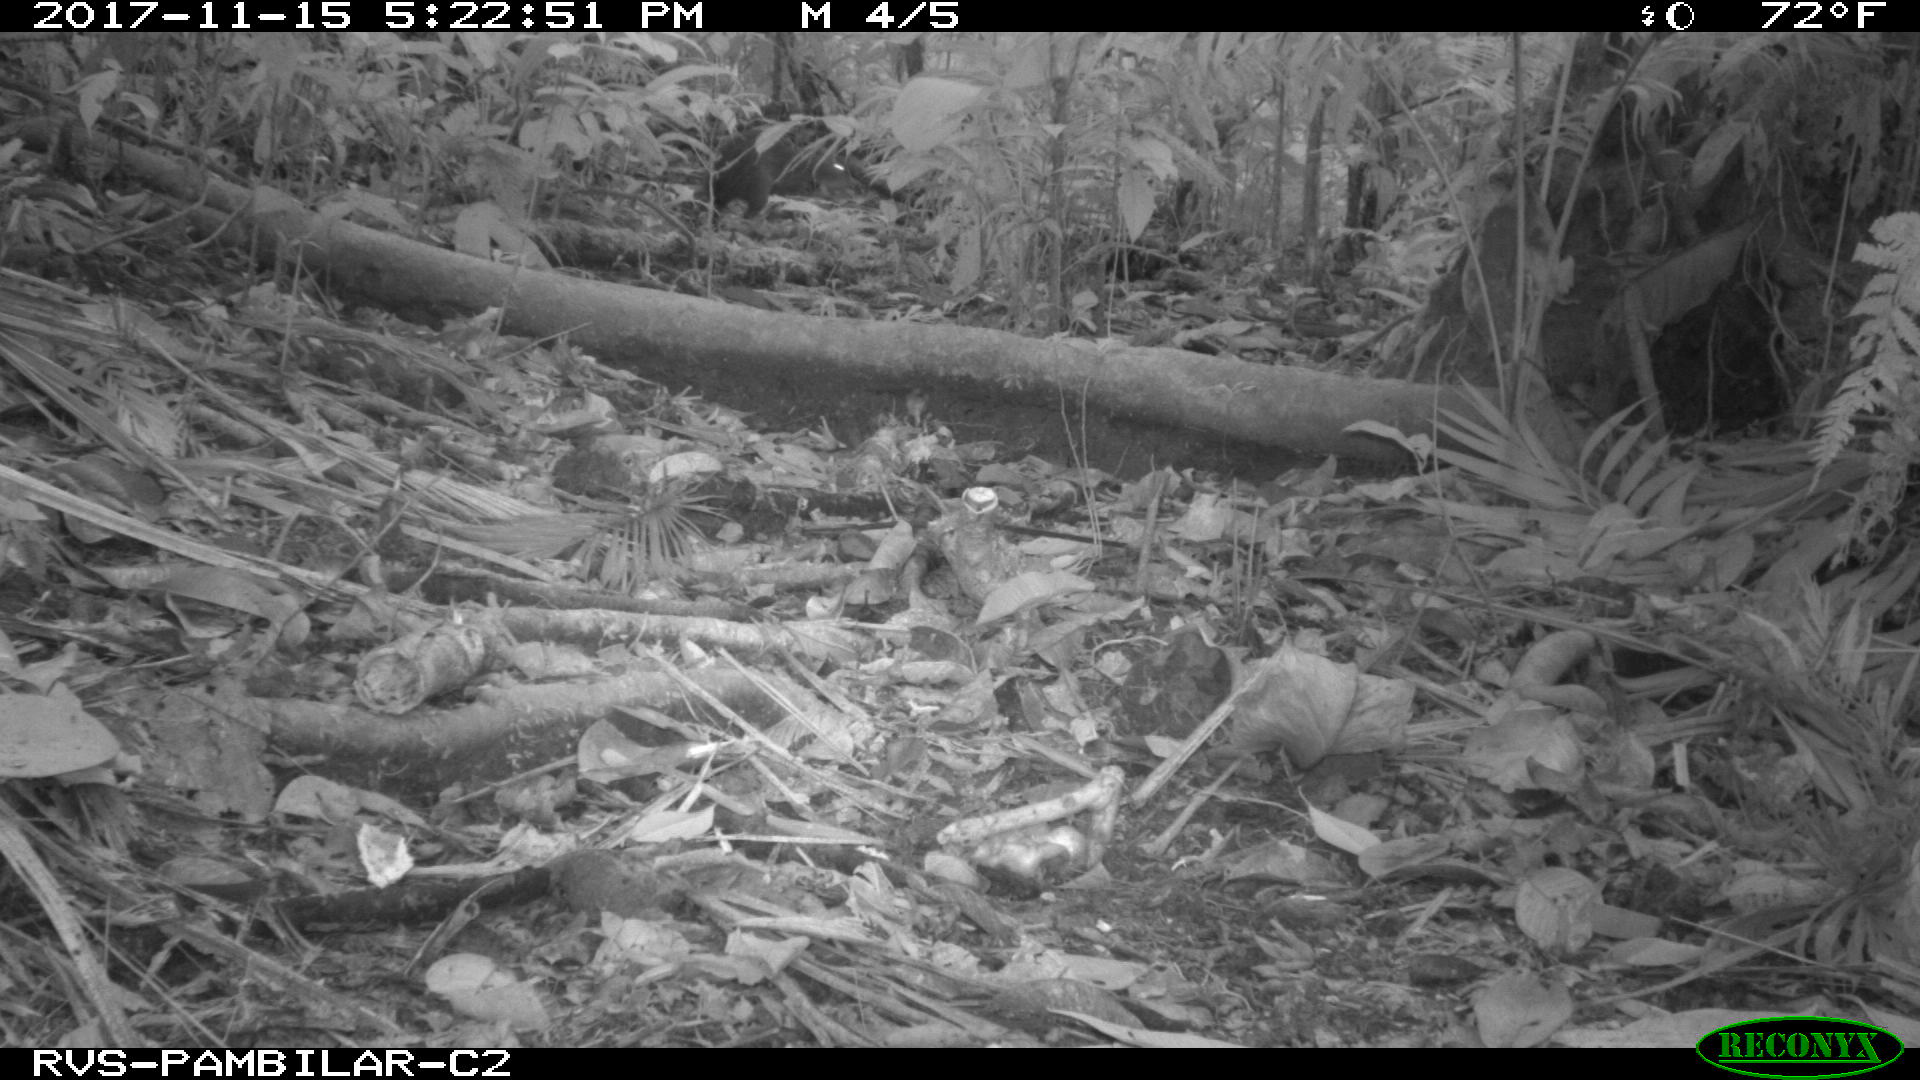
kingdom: Animalia
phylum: Chordata
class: Mammalia
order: Rodentia
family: Echimyidae
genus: Proechimys
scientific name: Proechimys
